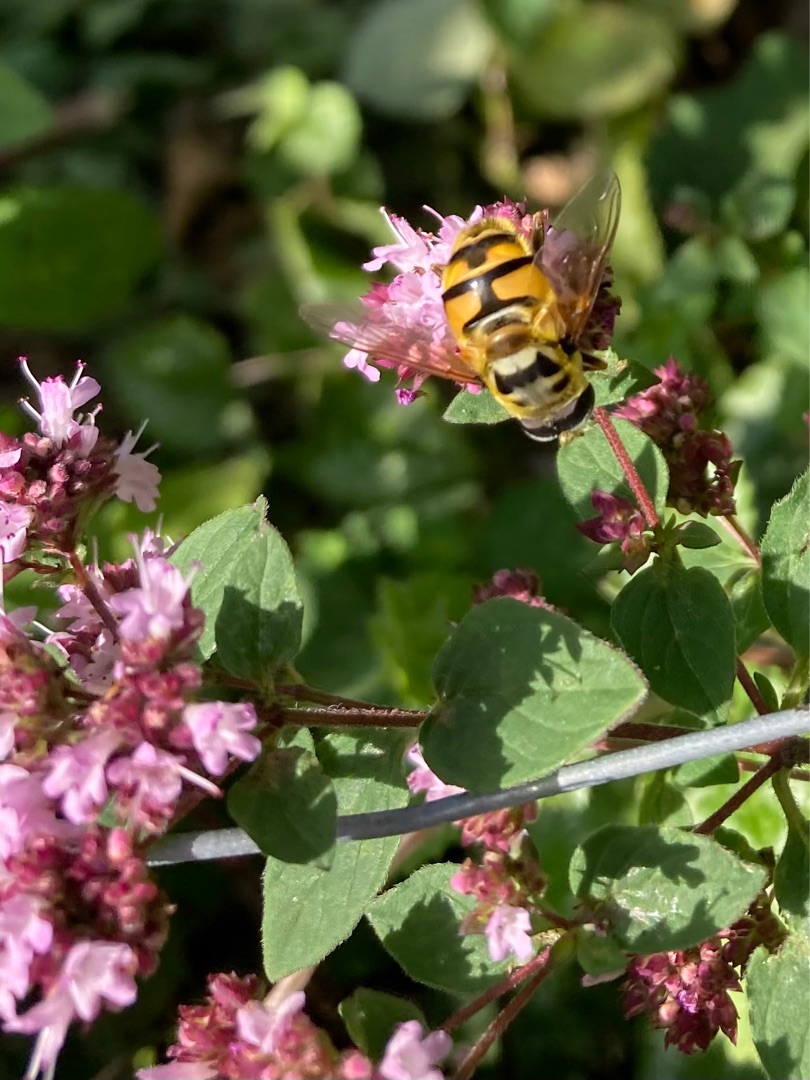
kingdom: Animalia
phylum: Arthropoda
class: Insecta
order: Diptera
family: Syrphidae
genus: Myathropa
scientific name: Myathropa florea
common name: Dødningehoved-svirreflue
